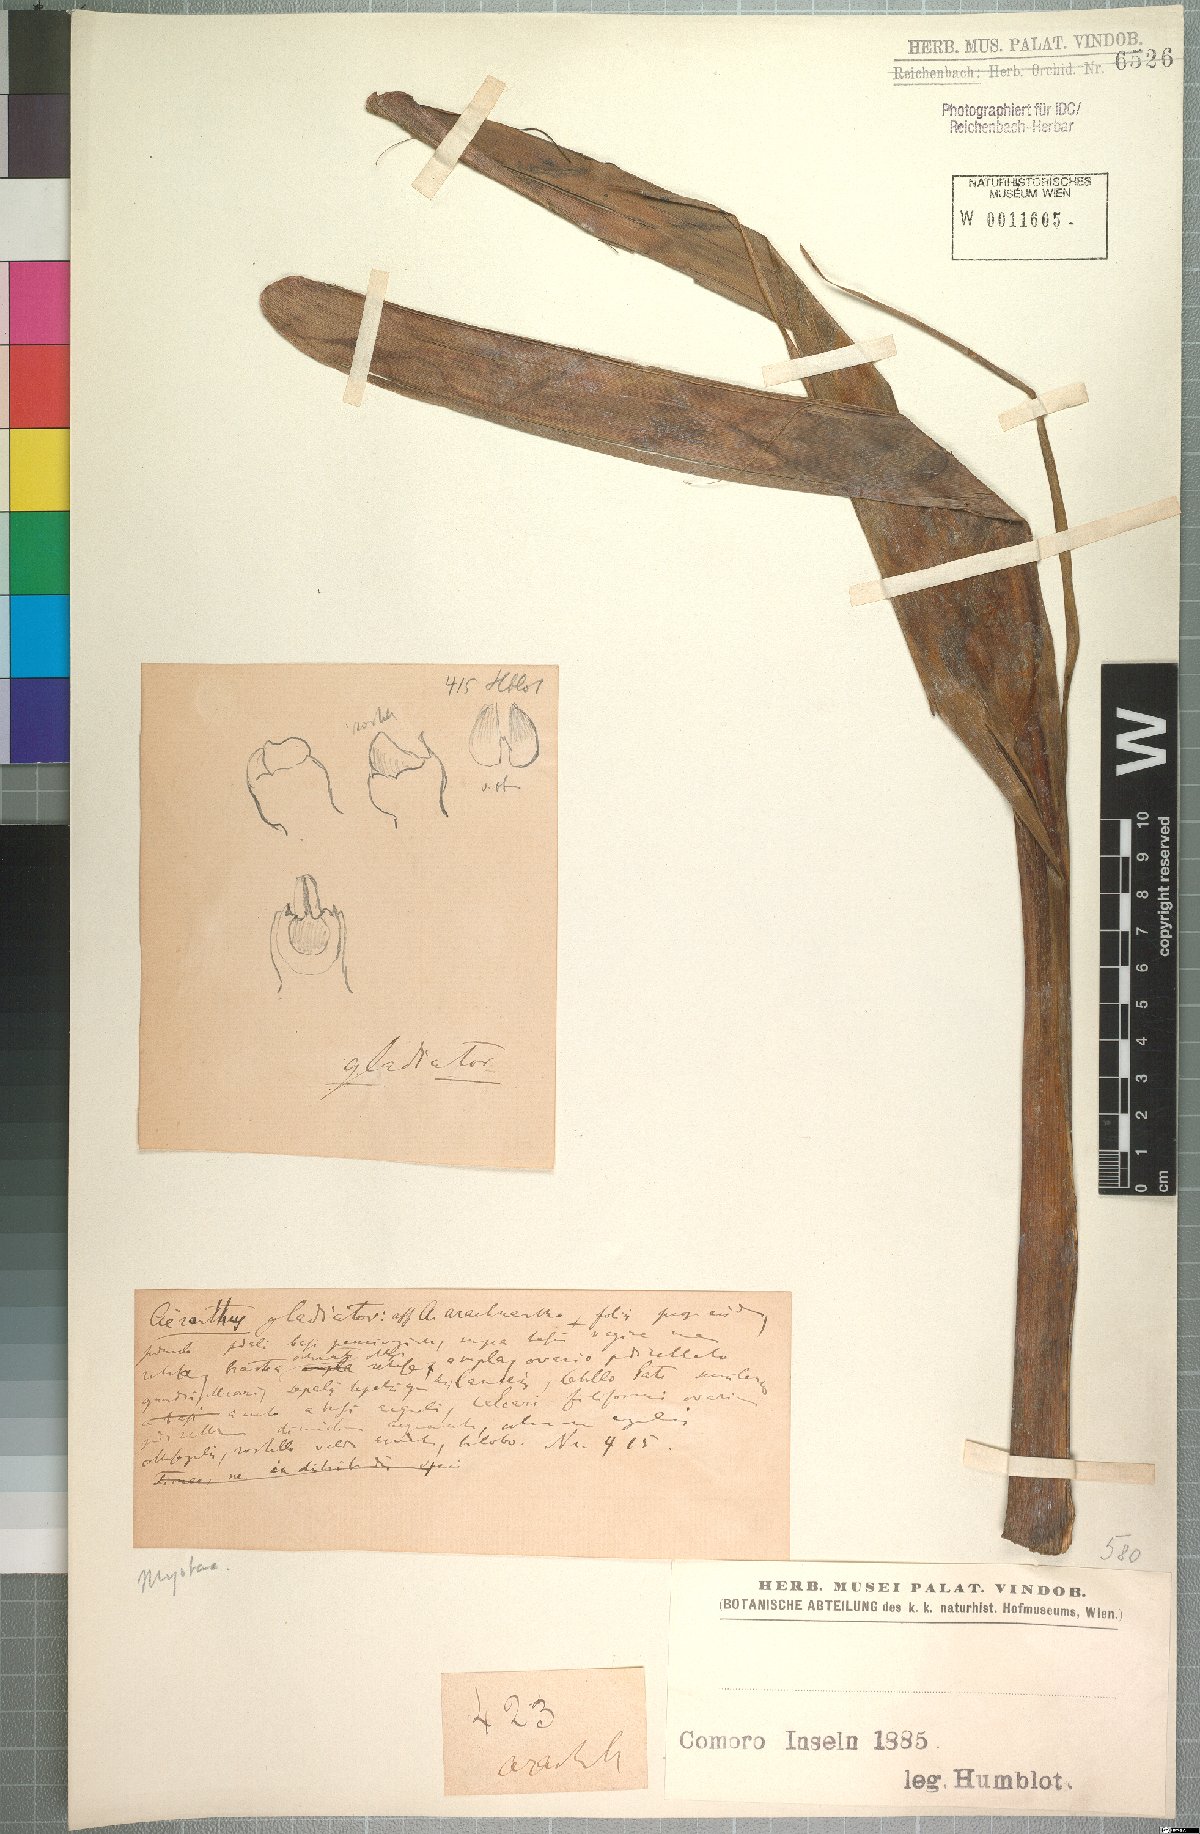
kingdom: Plantae
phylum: Tracheophyta
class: Liliopsida
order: Asparagales
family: Orchidaceae
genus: Jumellea
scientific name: Jumellea arachnantha
